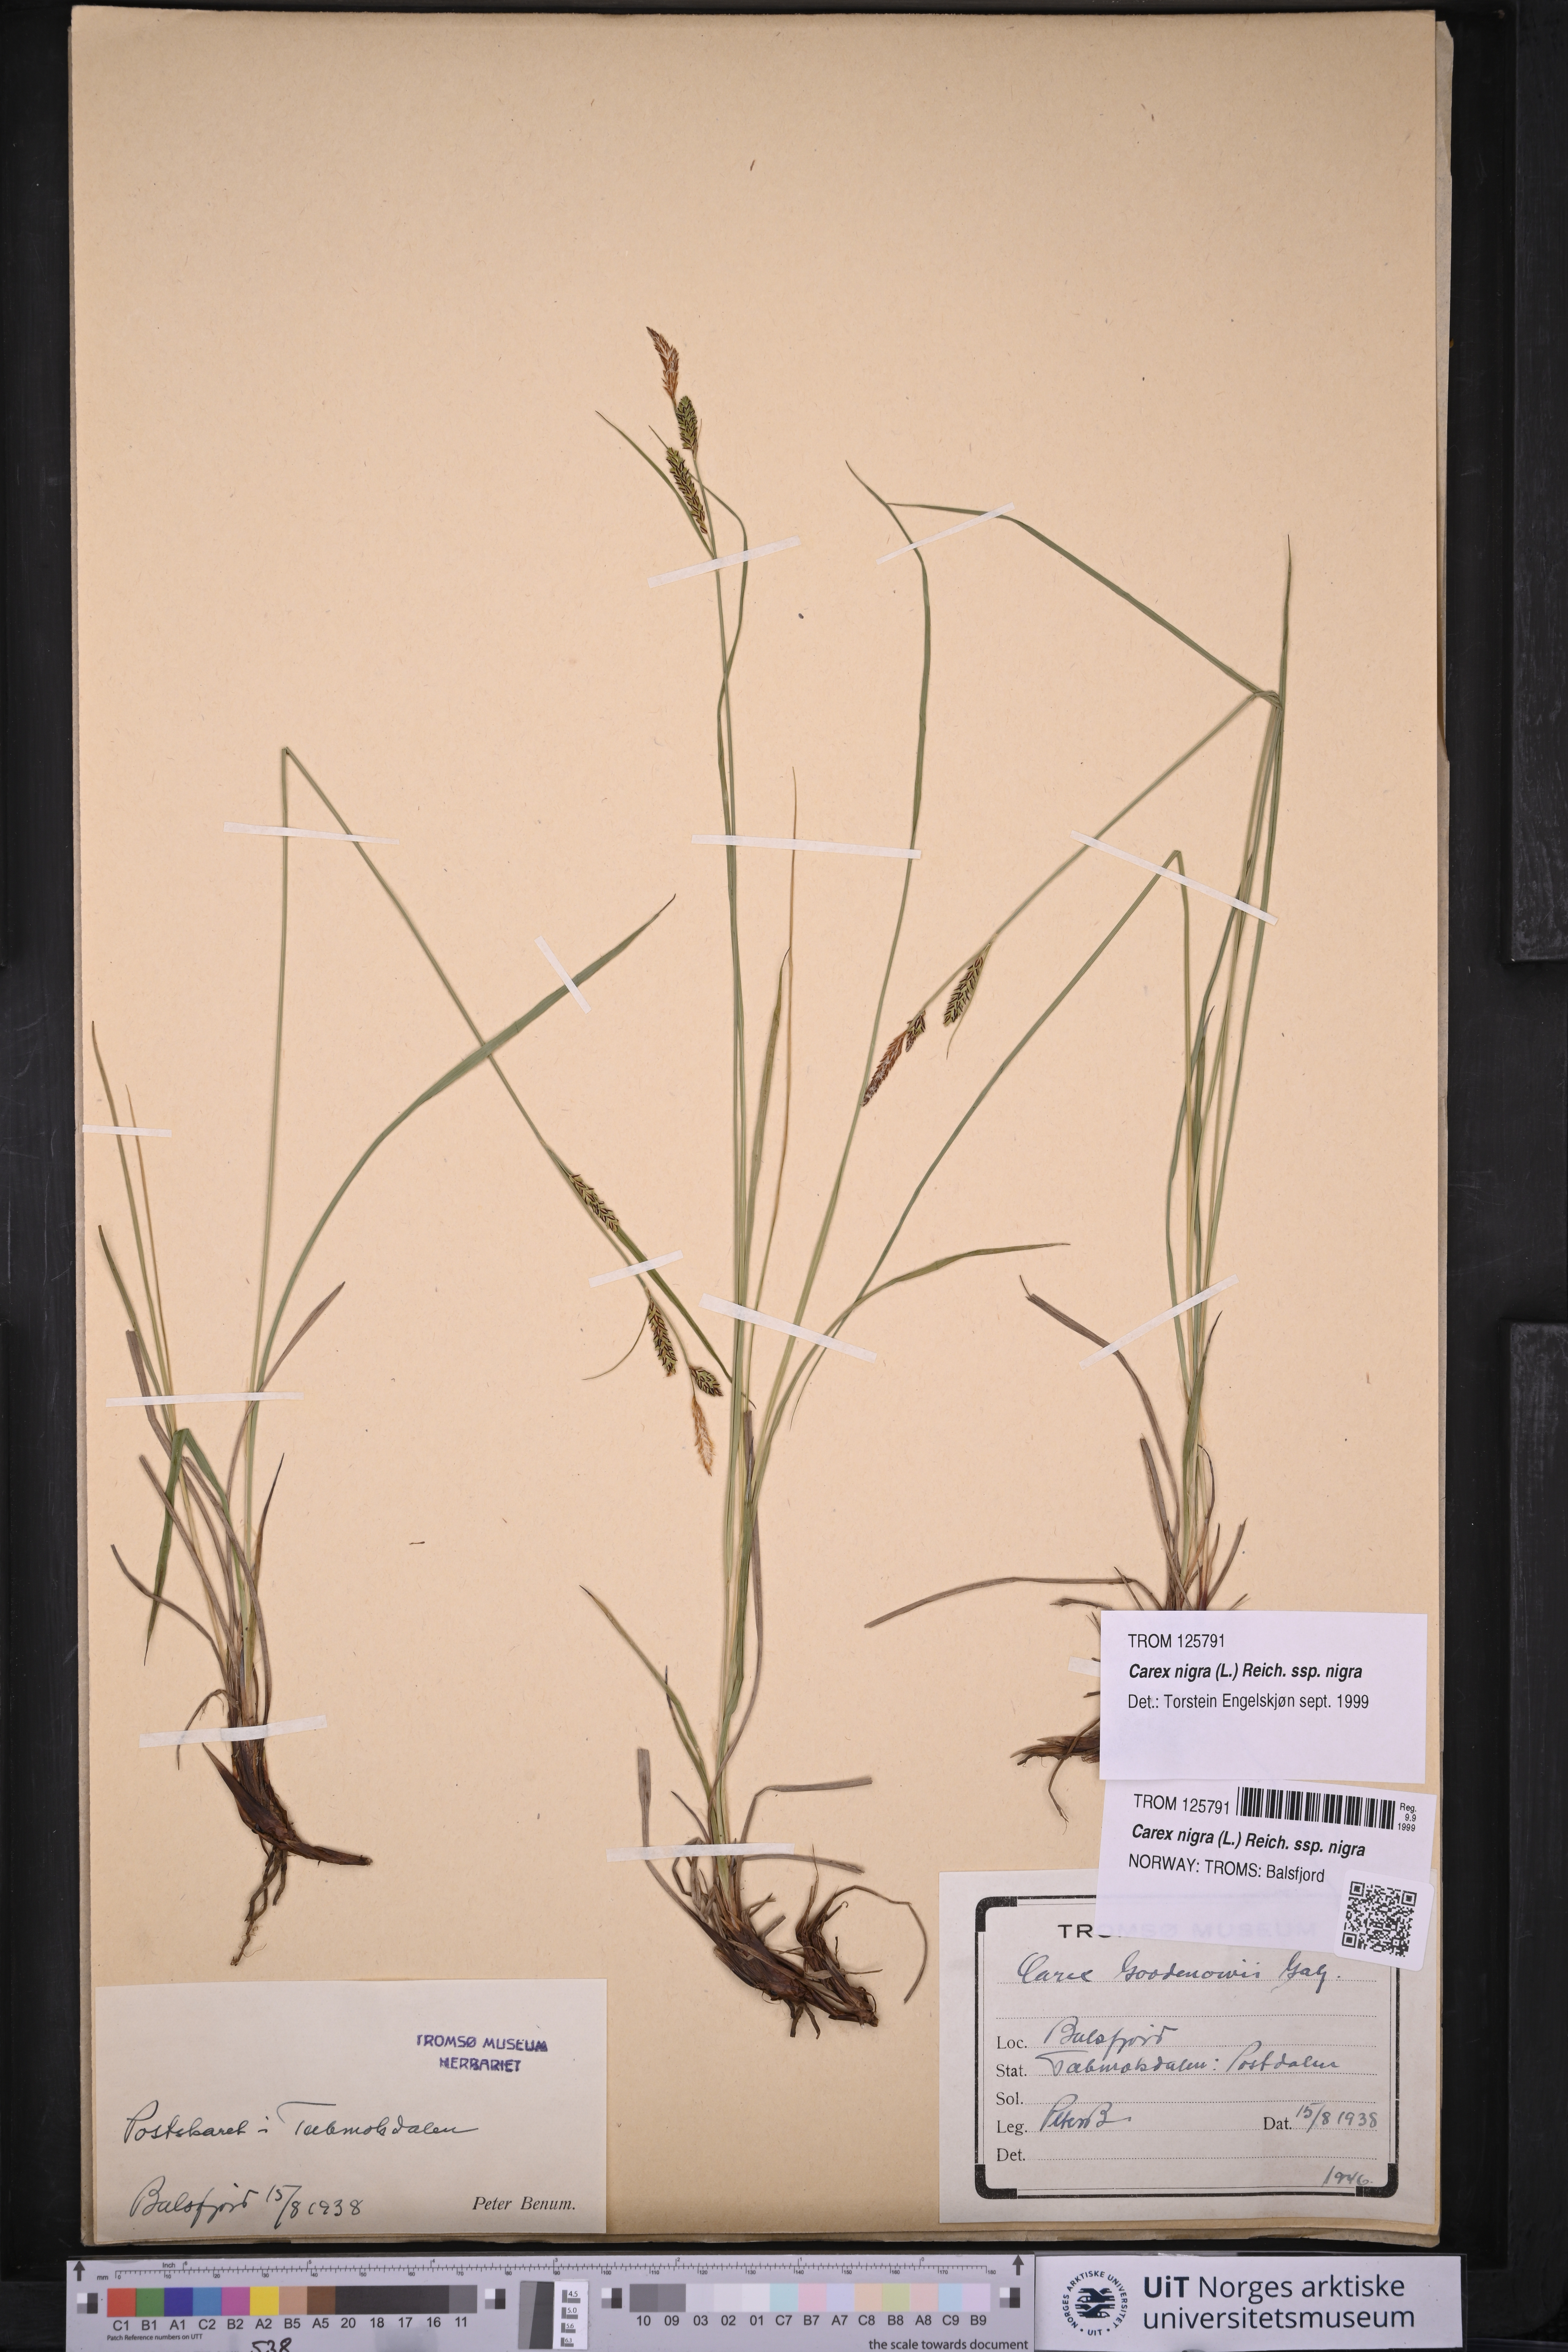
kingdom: Plantae
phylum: Tracheophyta
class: Liliopsida
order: Poales
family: Cyperaceae
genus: Carex
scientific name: Carex nigra
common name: Common sedge
